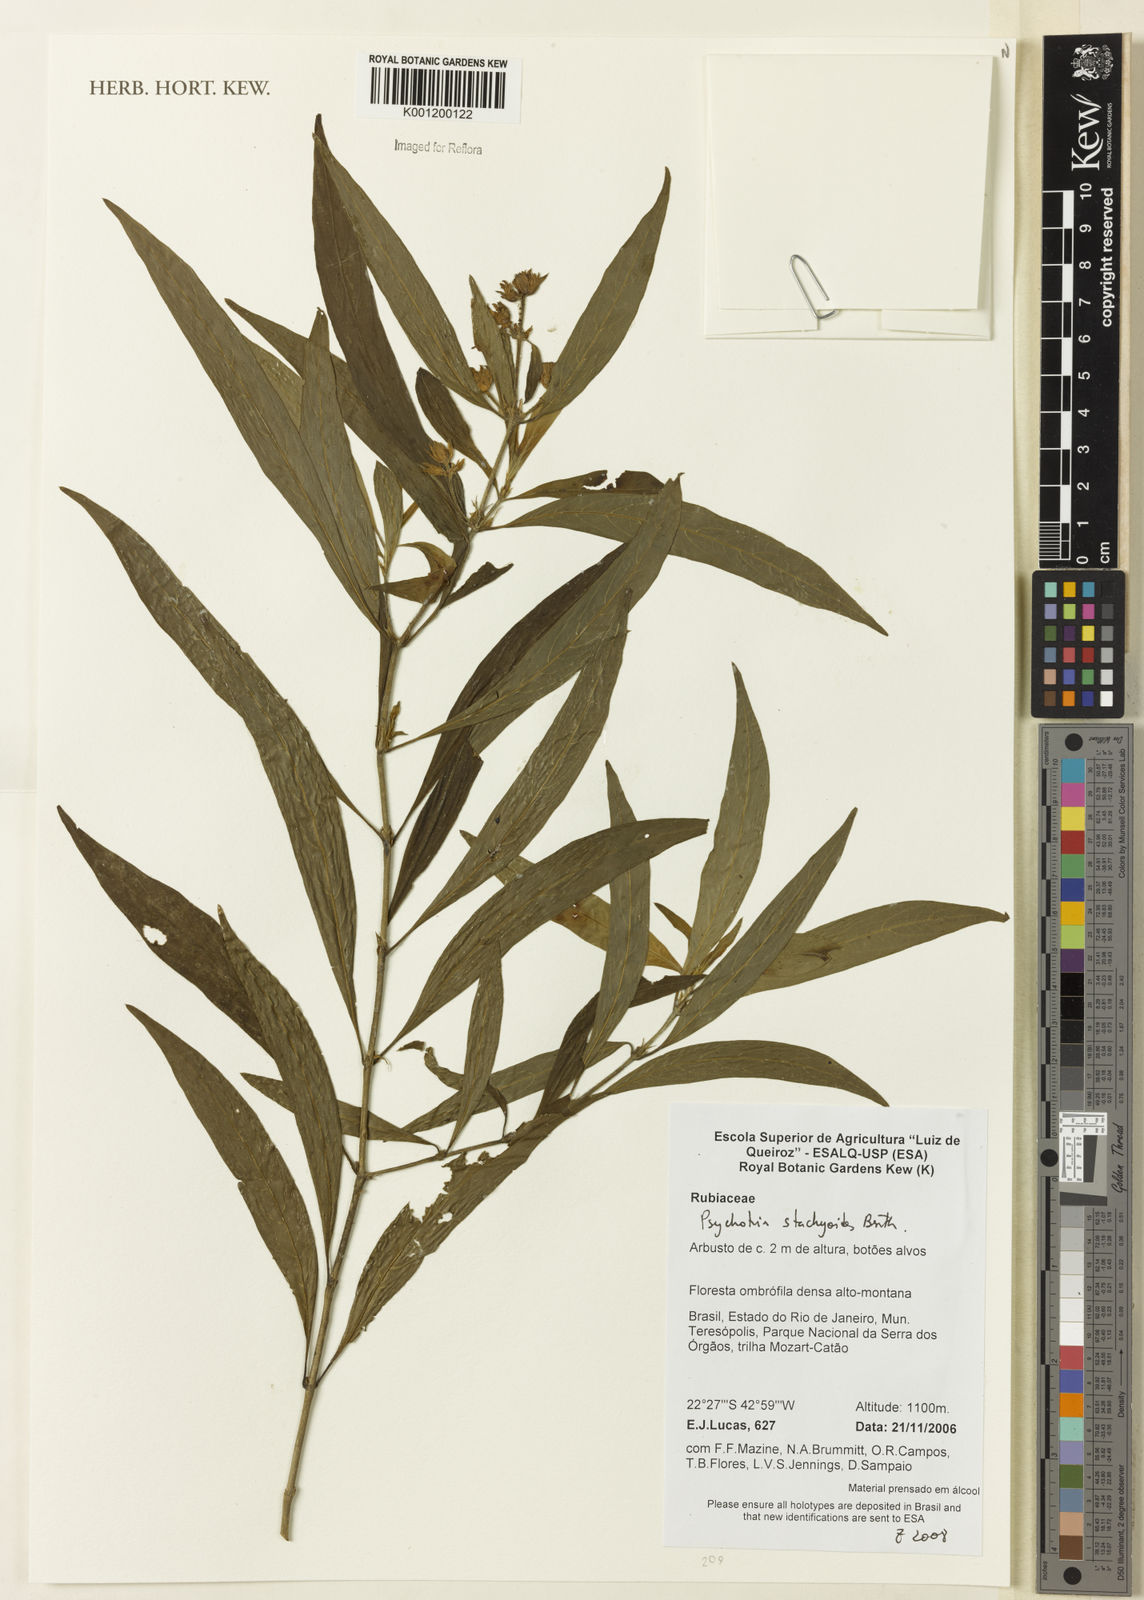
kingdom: Plantae
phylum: Tracheophyta
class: Magnoliopsida
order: Gentianales
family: Rubiaceae
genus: Psychotria
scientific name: Psychotria stachyoides
